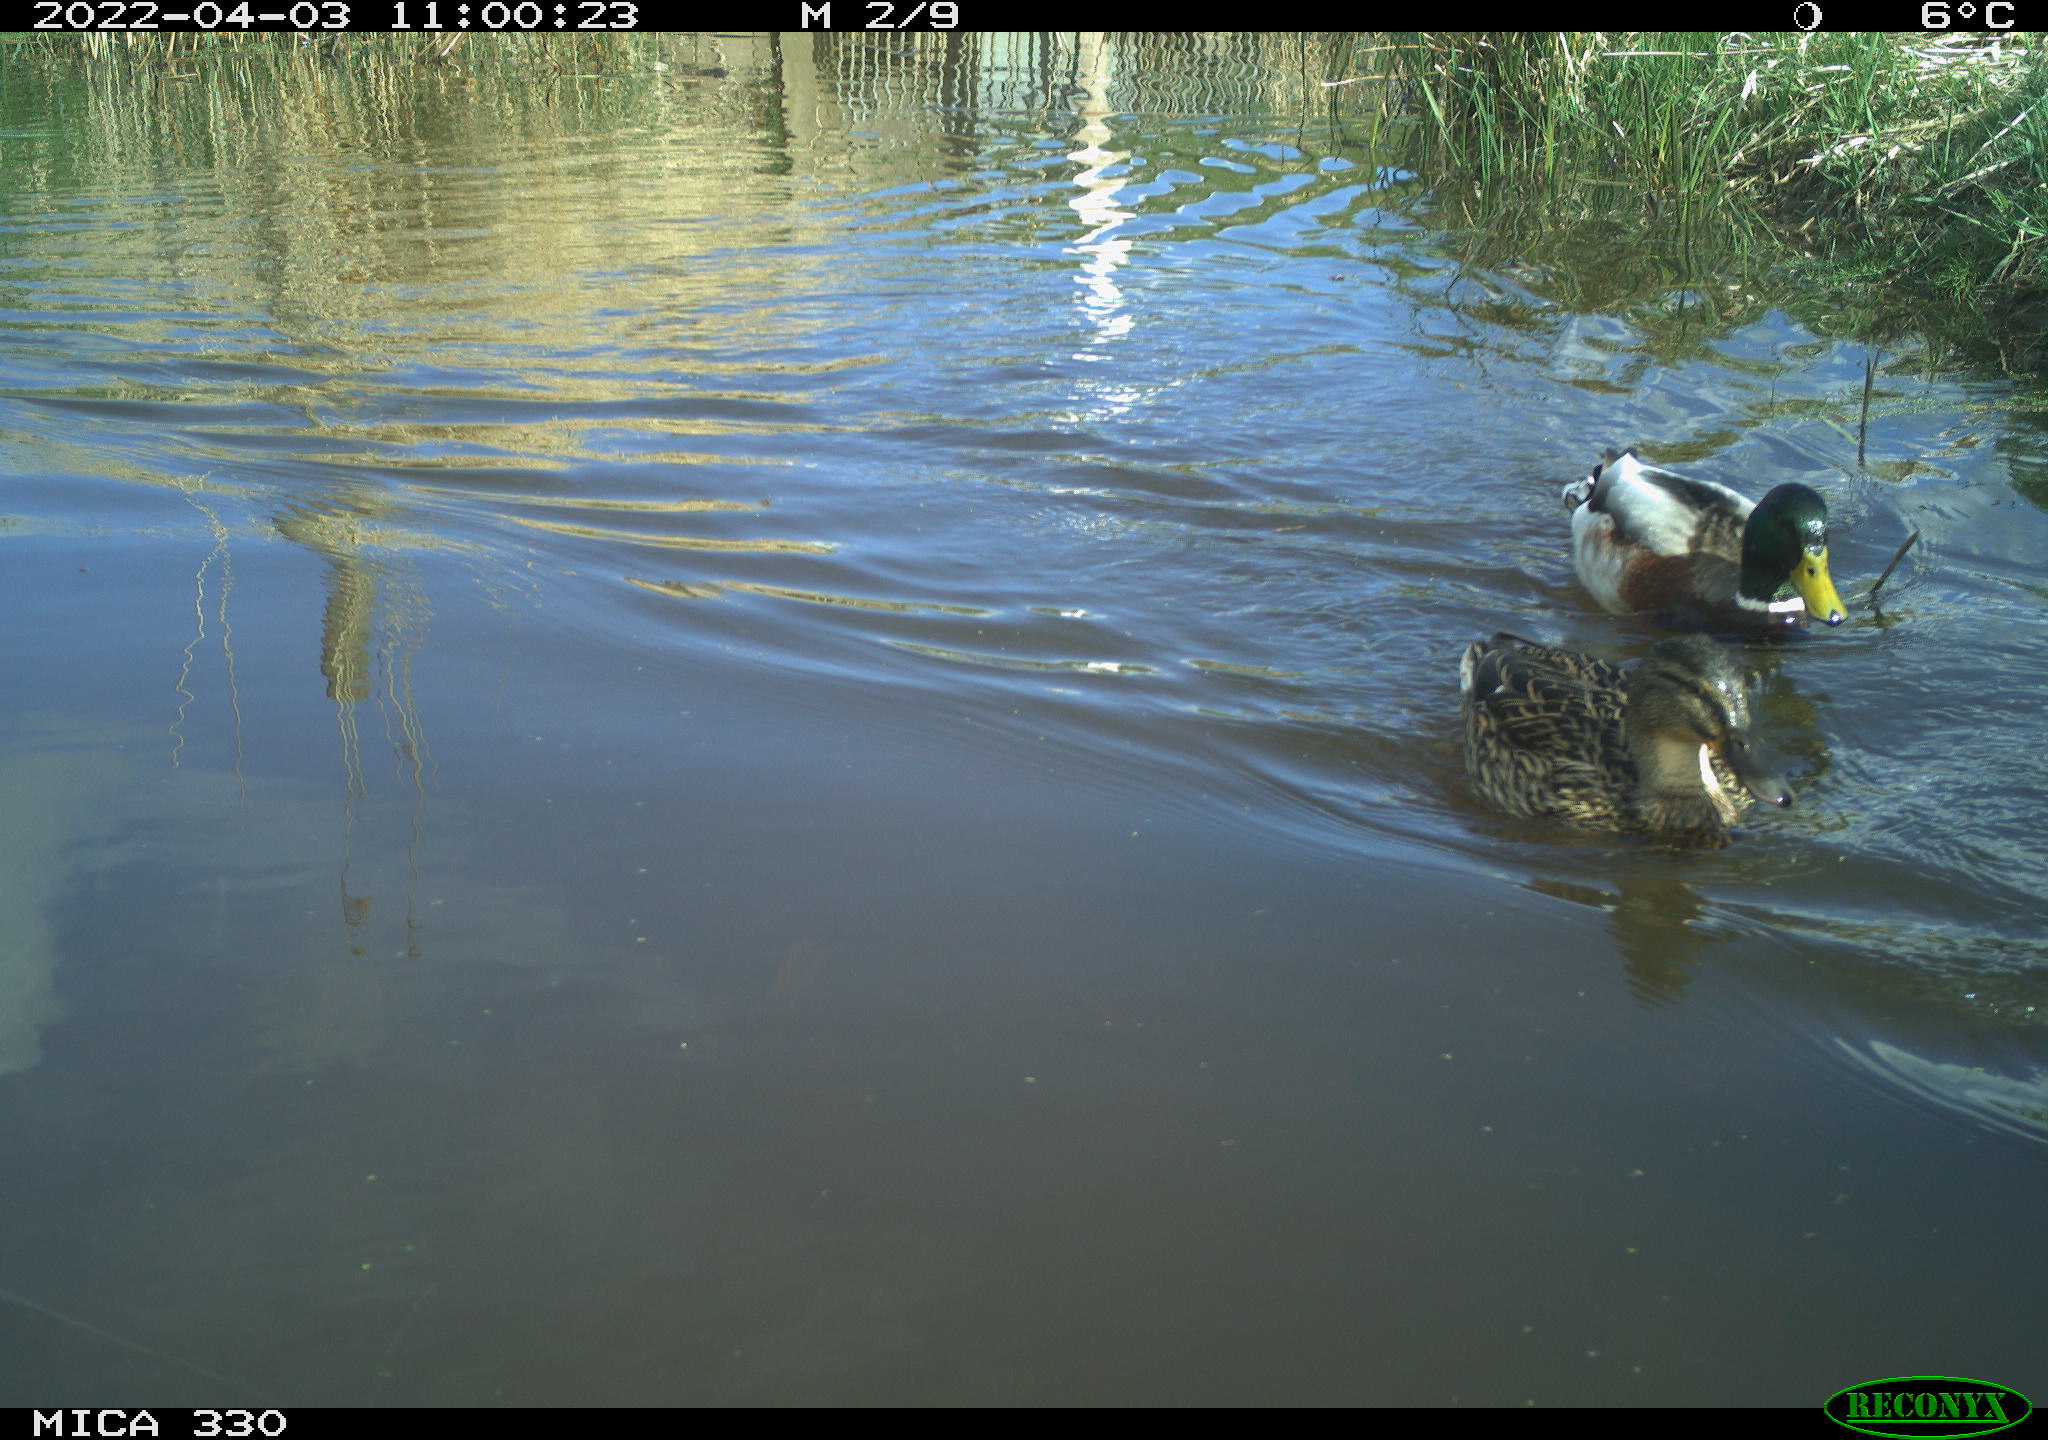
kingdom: Animalia
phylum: Chordata
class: Aves
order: Anseriformes
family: Anatidae
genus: Anas
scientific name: Anas platyrhynchos
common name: Mallard
